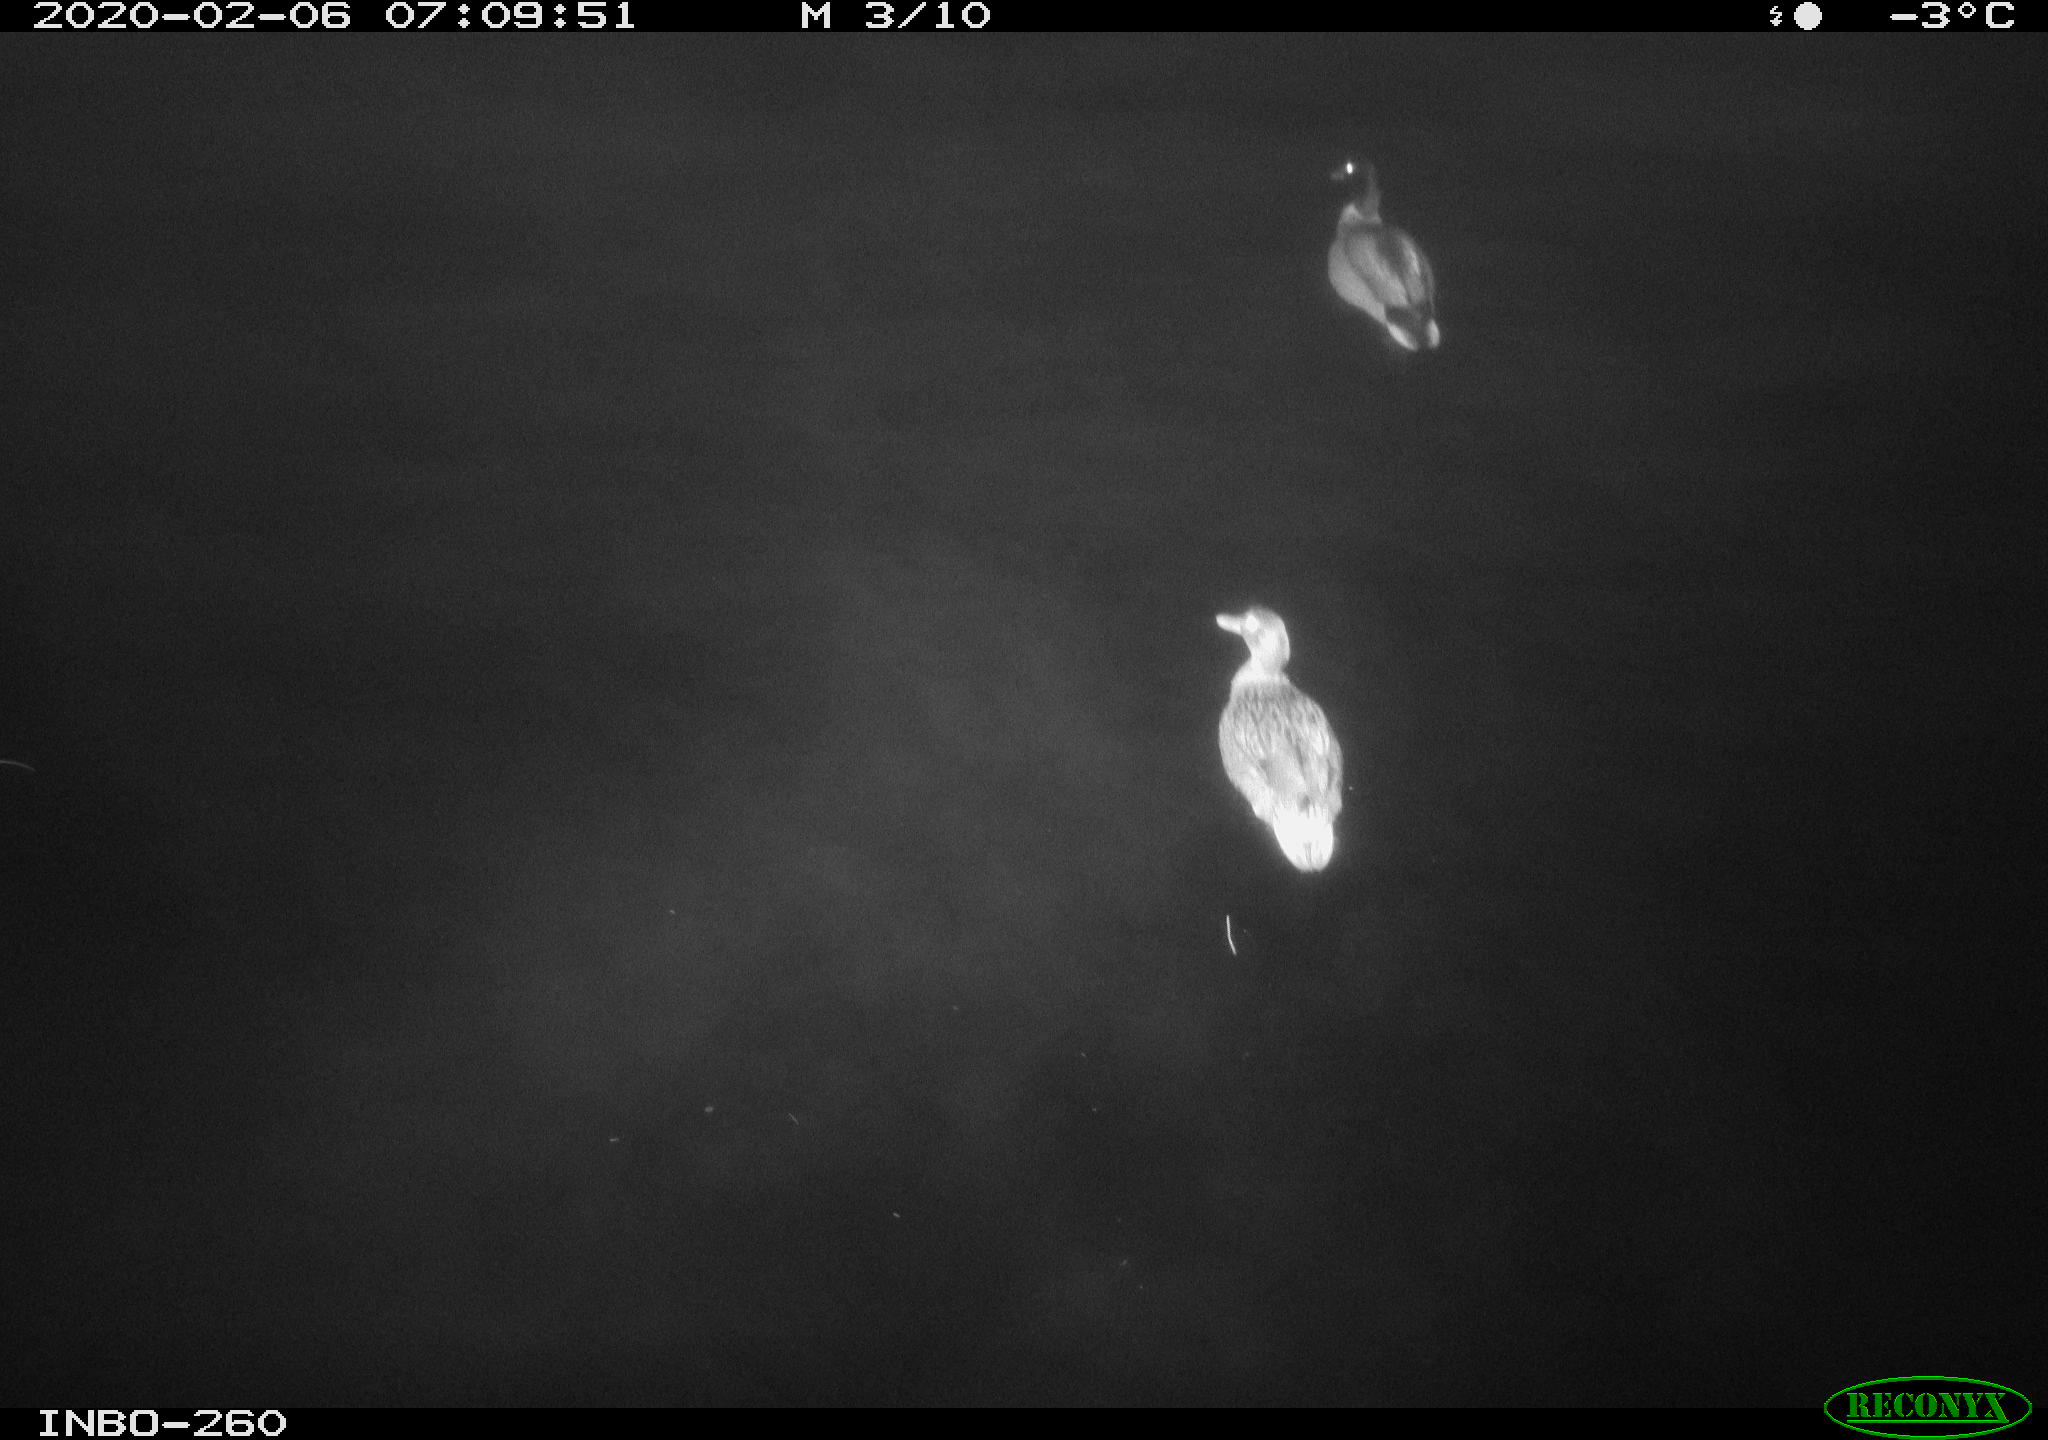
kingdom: Animalia
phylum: Chordata
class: Aves
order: Anseriformes
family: Anatidae
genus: Anas
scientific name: Anas platyrhynchos
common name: Mallard
